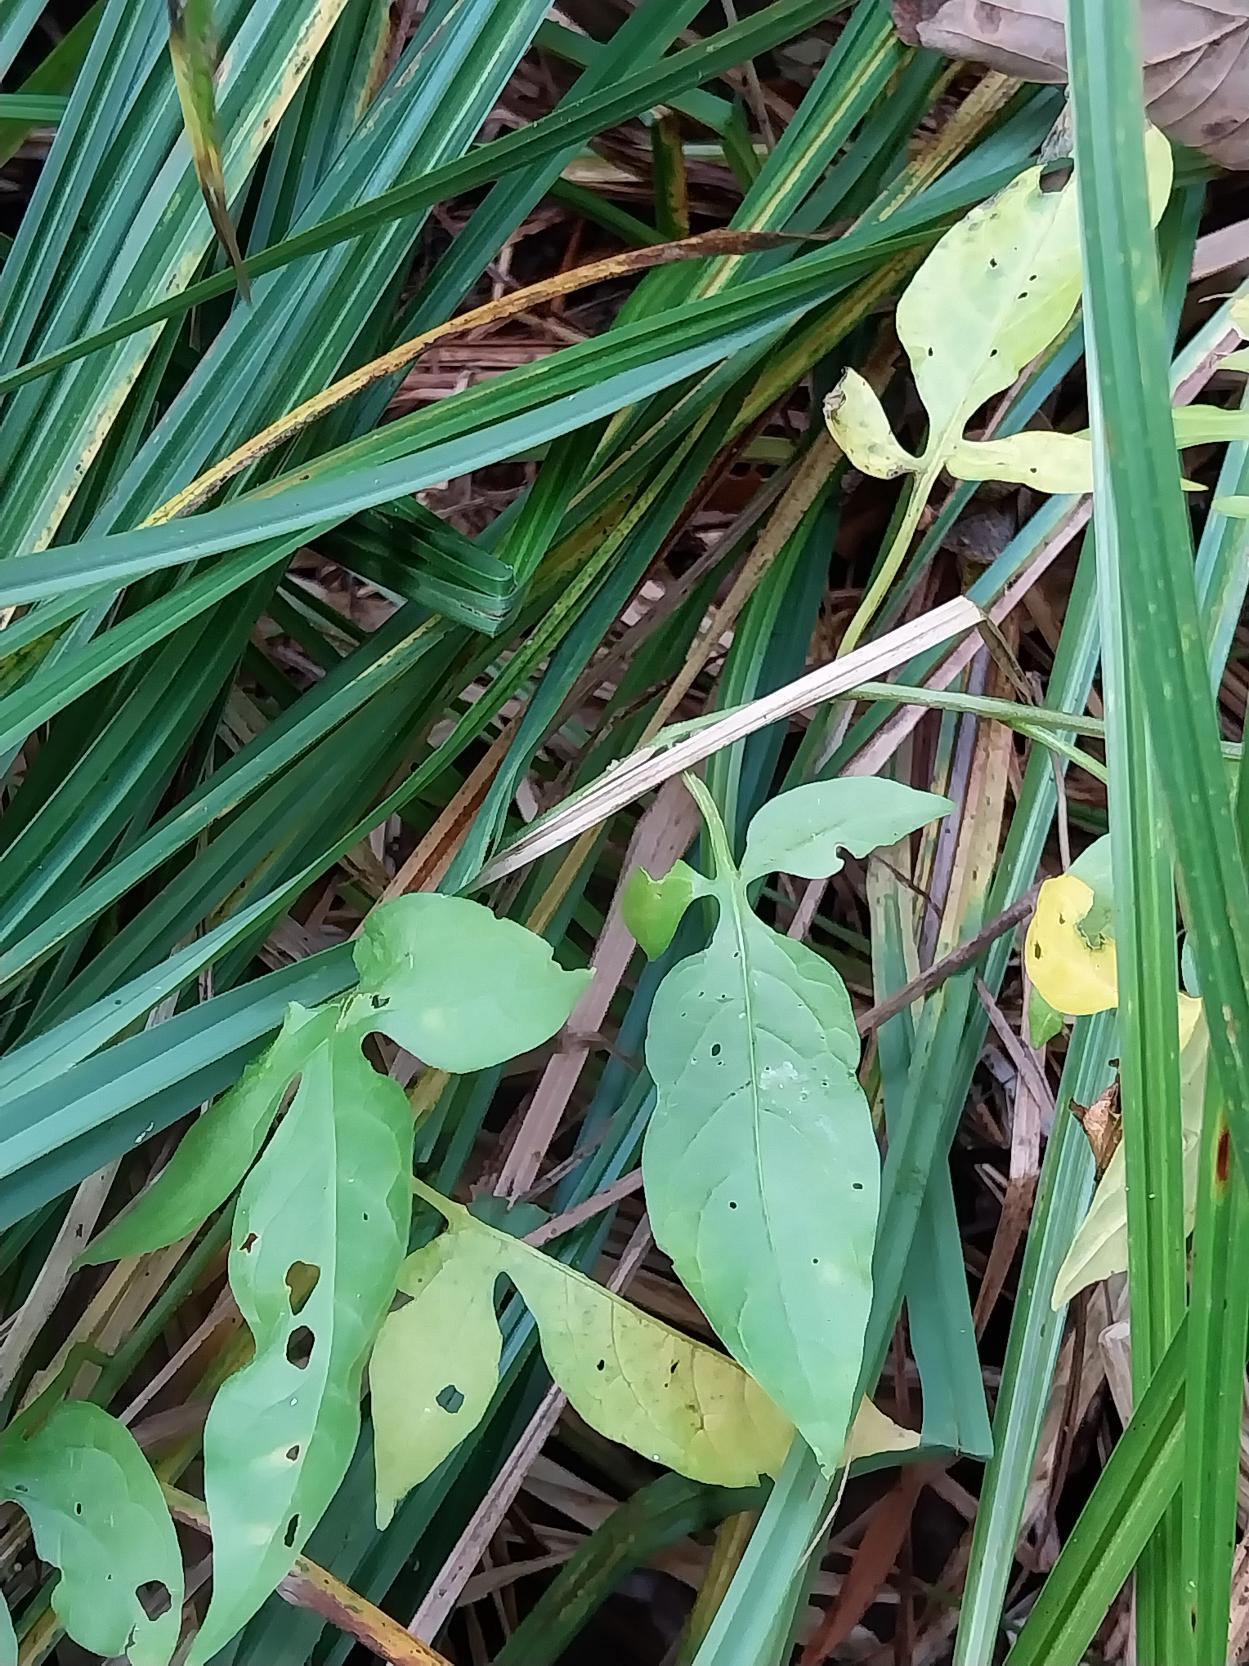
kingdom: Plantae
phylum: Tracheophyta
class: Magnoliopsida
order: Solanales
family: Solanaceae
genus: Solanum
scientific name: Solanum dulcamara
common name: Bittersød natskygge
